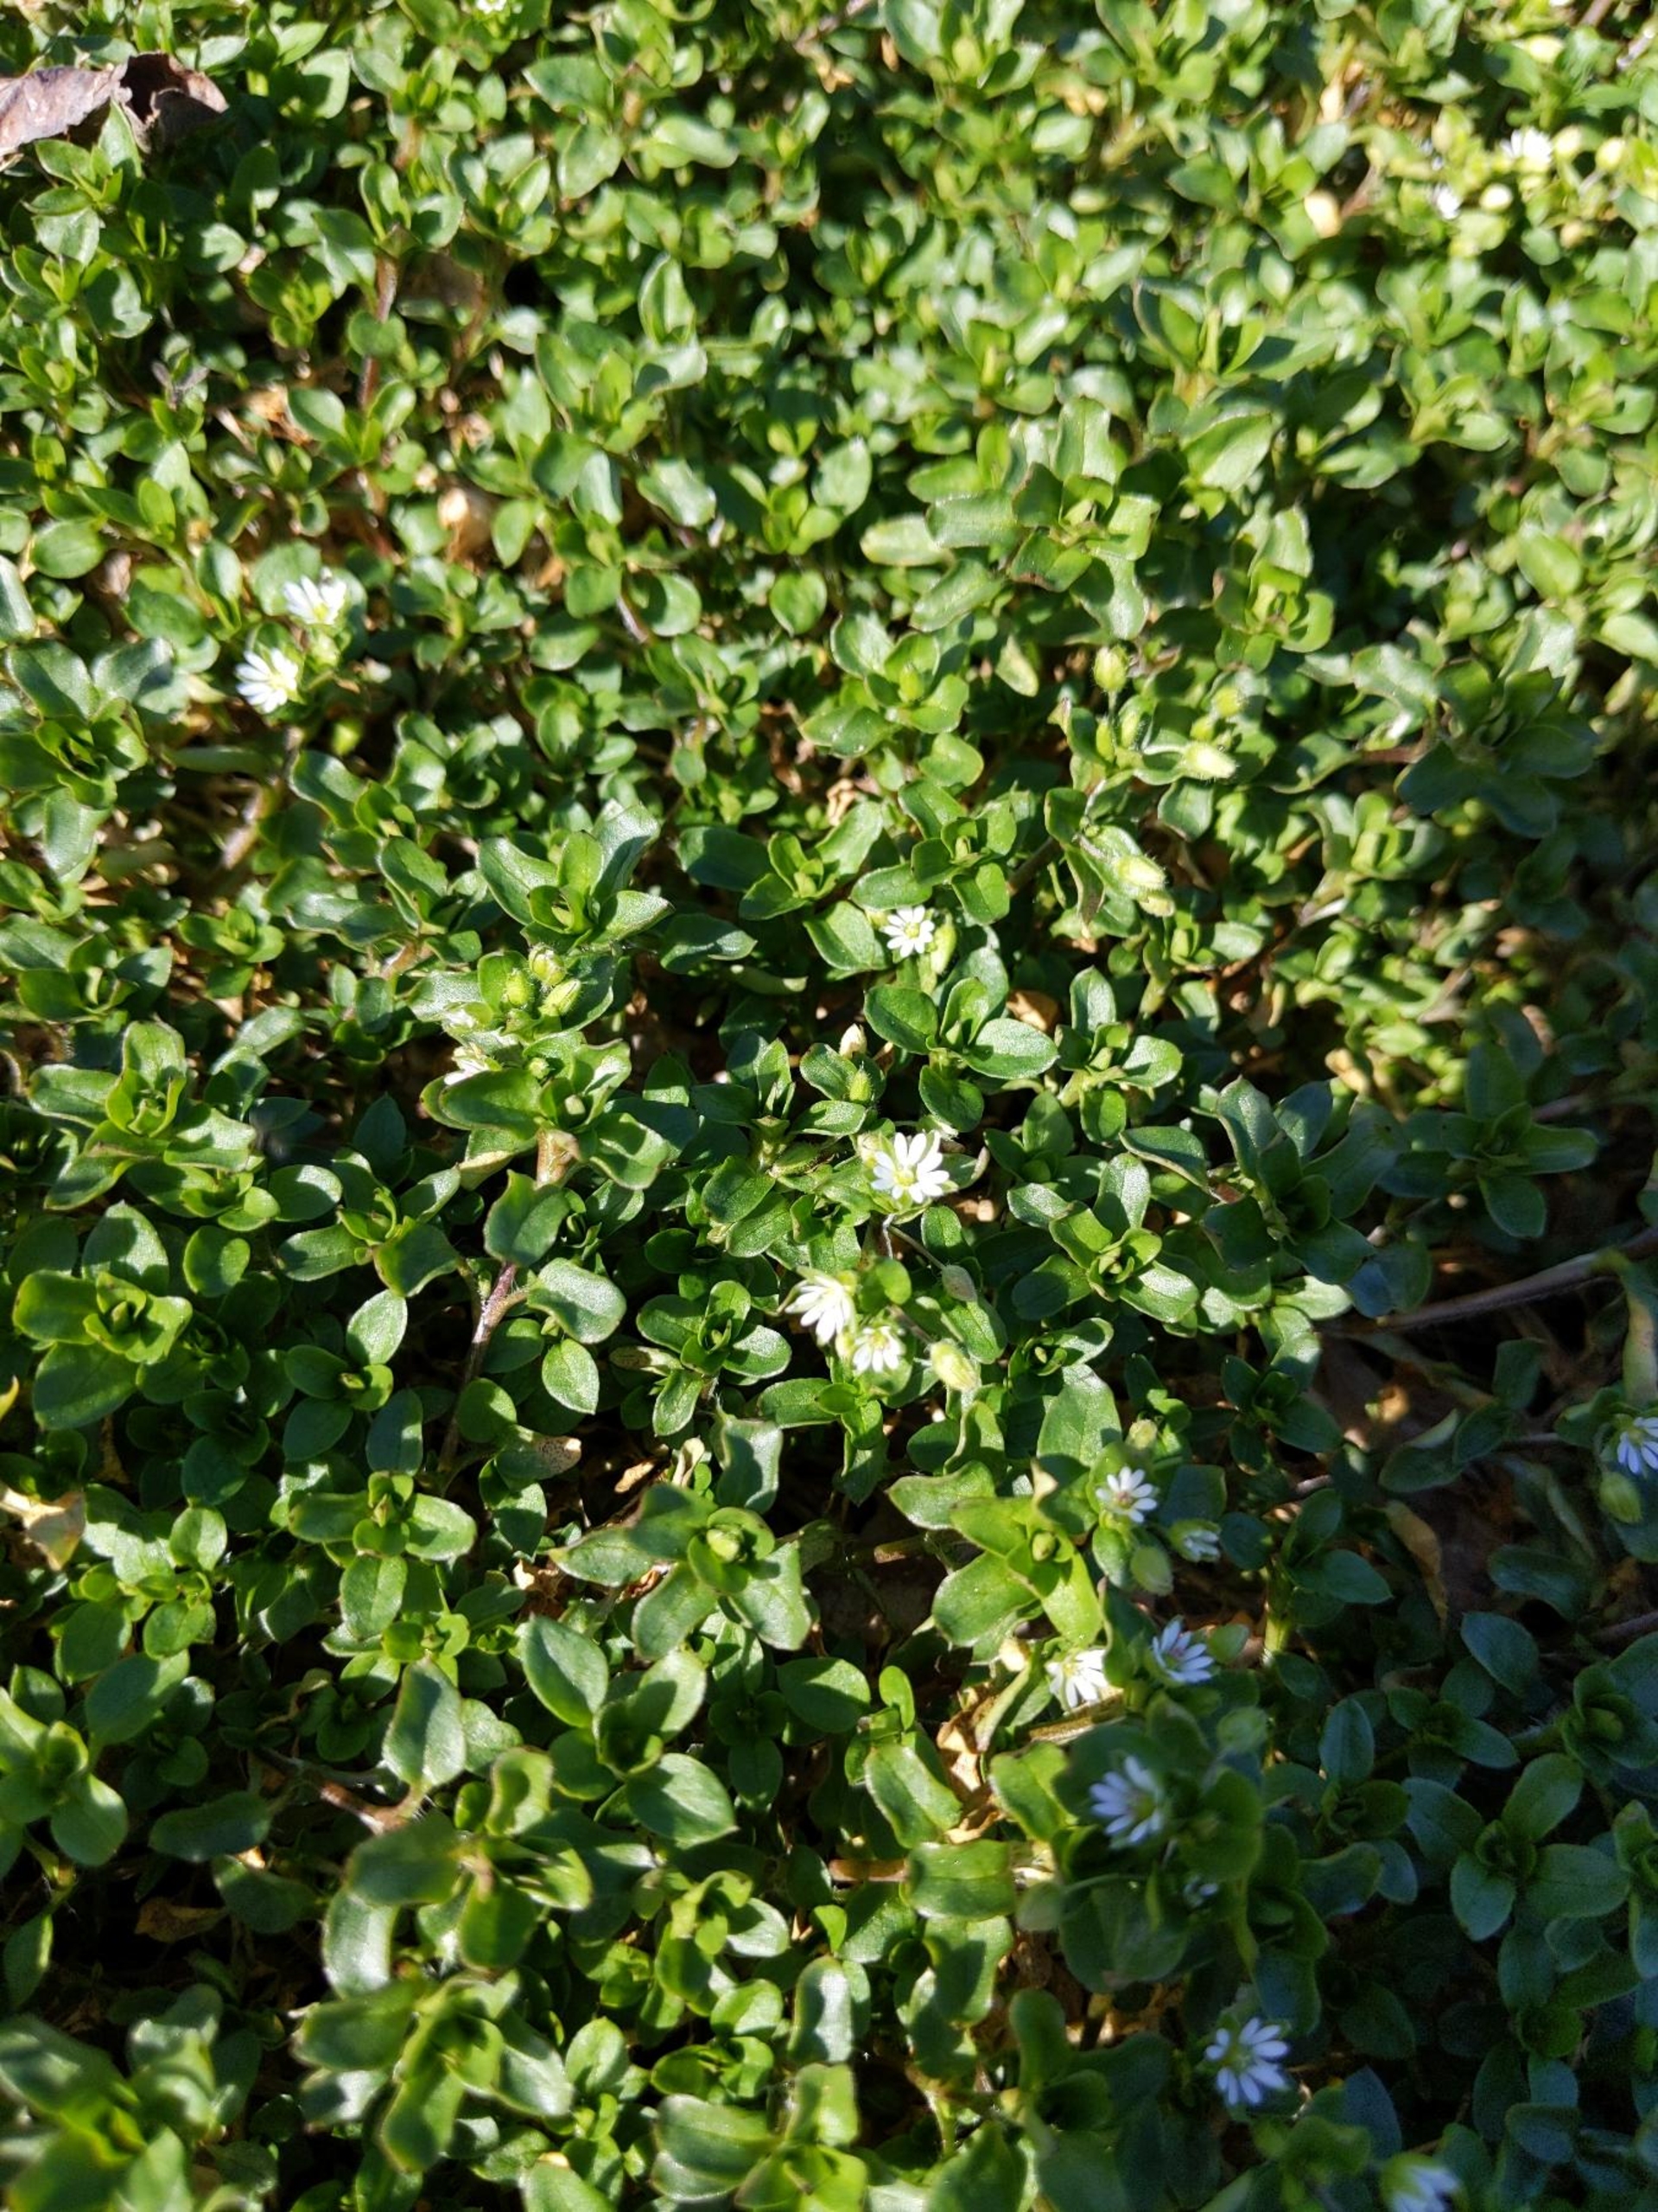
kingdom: Plantae
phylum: Tracheophyta
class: Magnoliopsida
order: Caryophyllales
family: Caryophyllaceae
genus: Stellaria
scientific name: Stellaria media
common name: Almindelig fuglegræs
